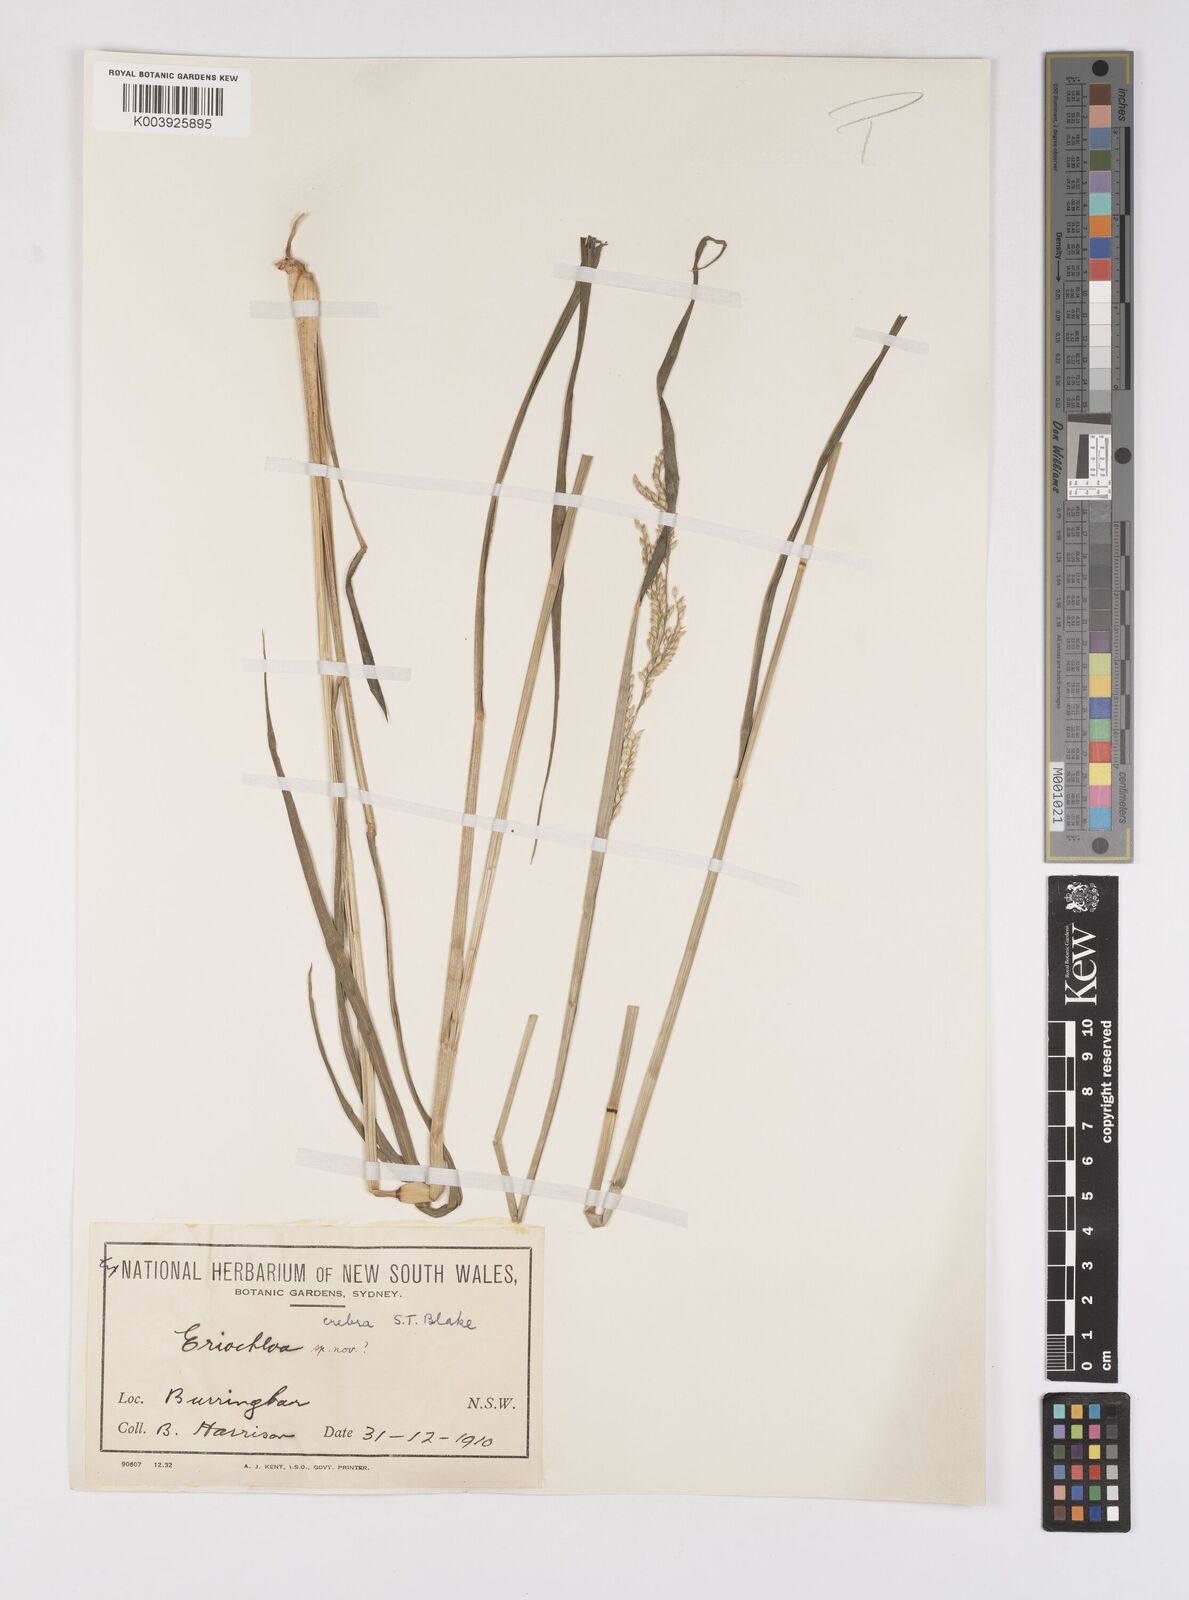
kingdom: Plantae
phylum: Tracheophyta
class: Liliopsida
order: Poales
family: Poaceae
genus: Eriochloa
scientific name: Eriochloa crebra
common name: Cup grass
